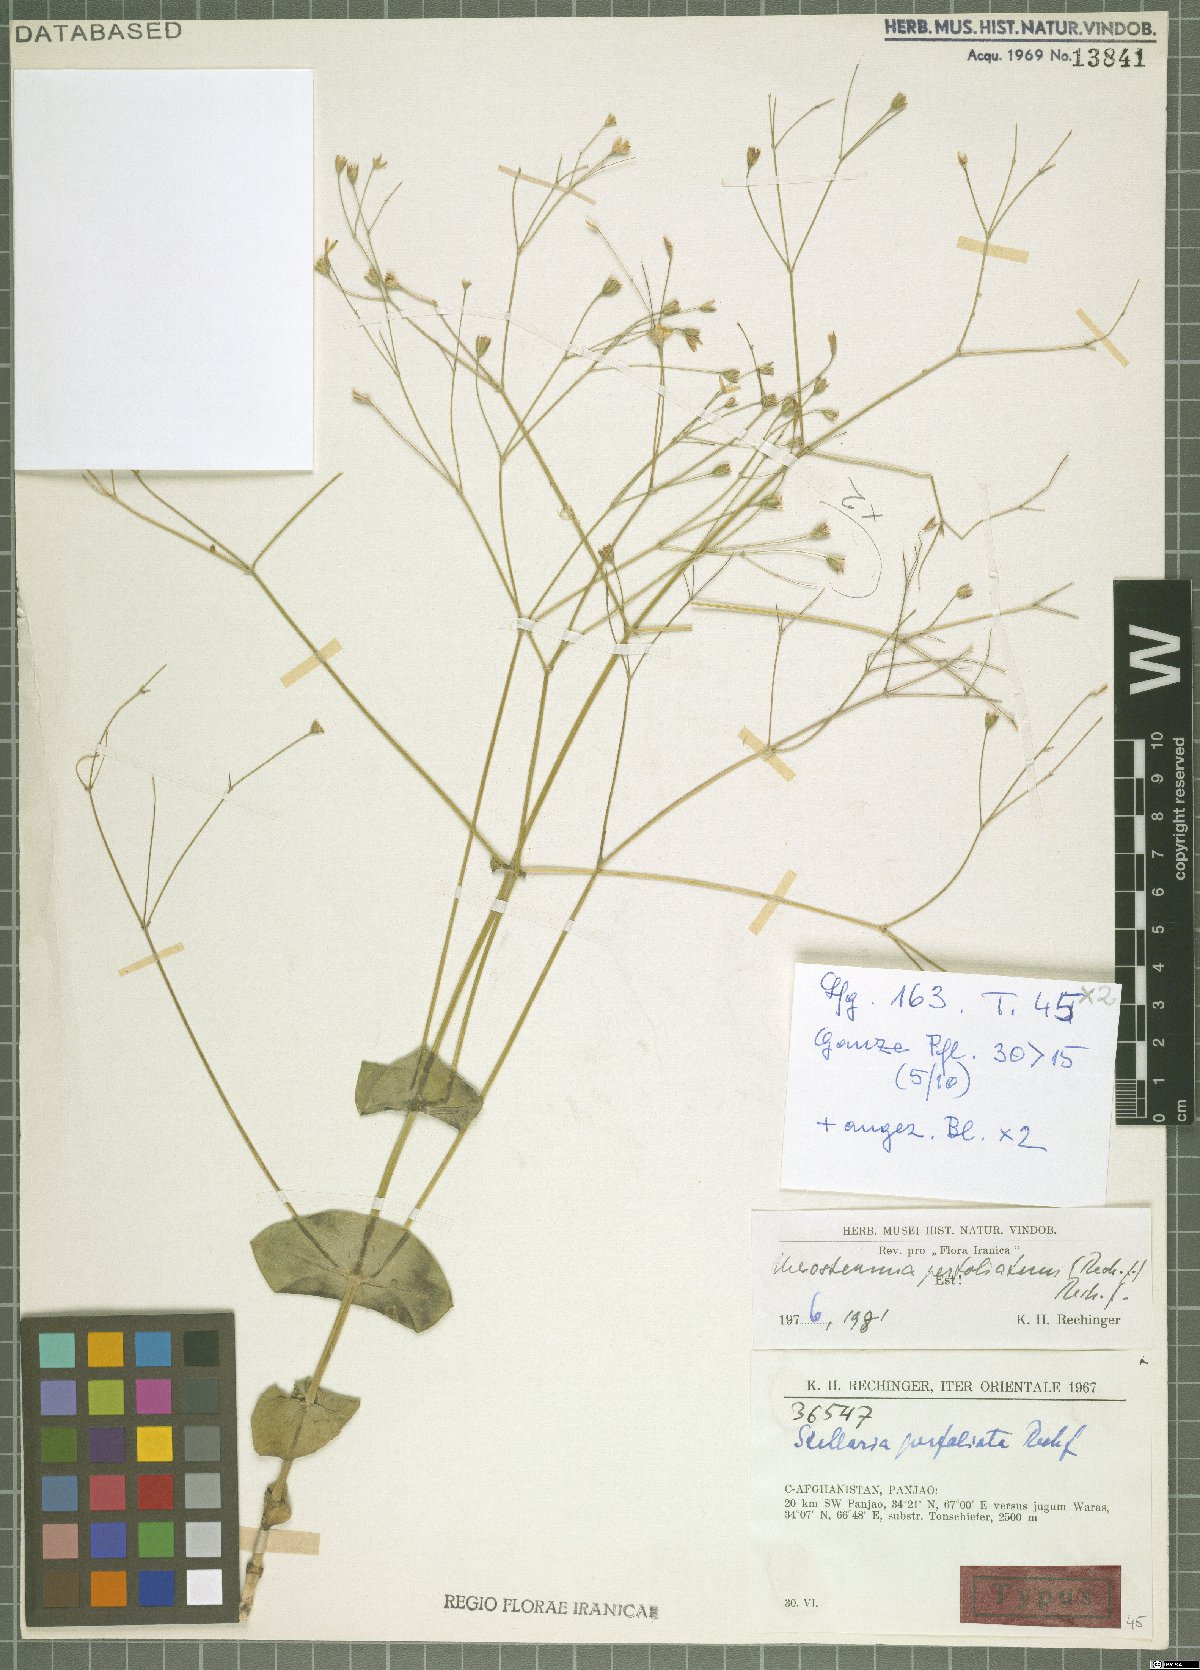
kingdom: Plantae
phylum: Tracheophyta
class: Magnoliopsida
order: Caryophyllales
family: Caryophyllaceae
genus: Mesostemma
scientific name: Mesostemma perfoliatum
